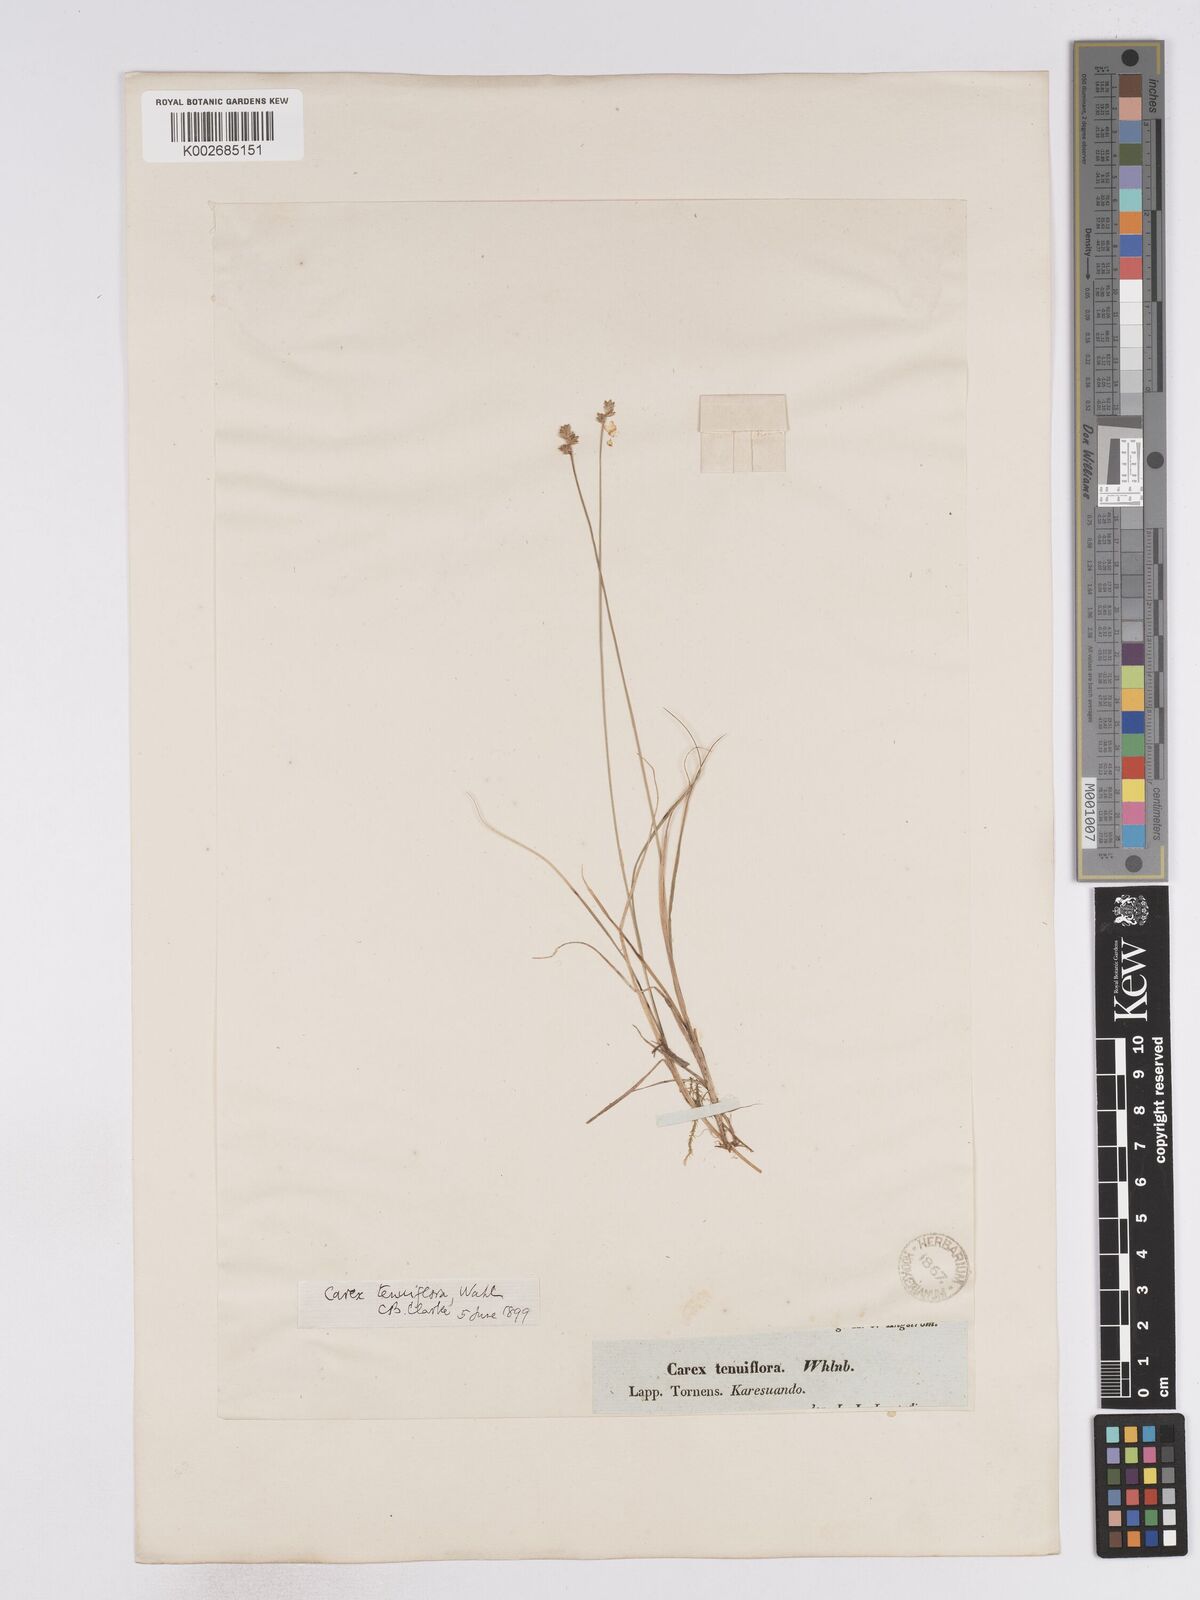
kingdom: Plantae
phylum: Tracheophyta
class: Liliopsida
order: Poales
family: Cyperaceae
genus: Carex
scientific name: Carex tenuiflora
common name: Sparse-flowered sedge
